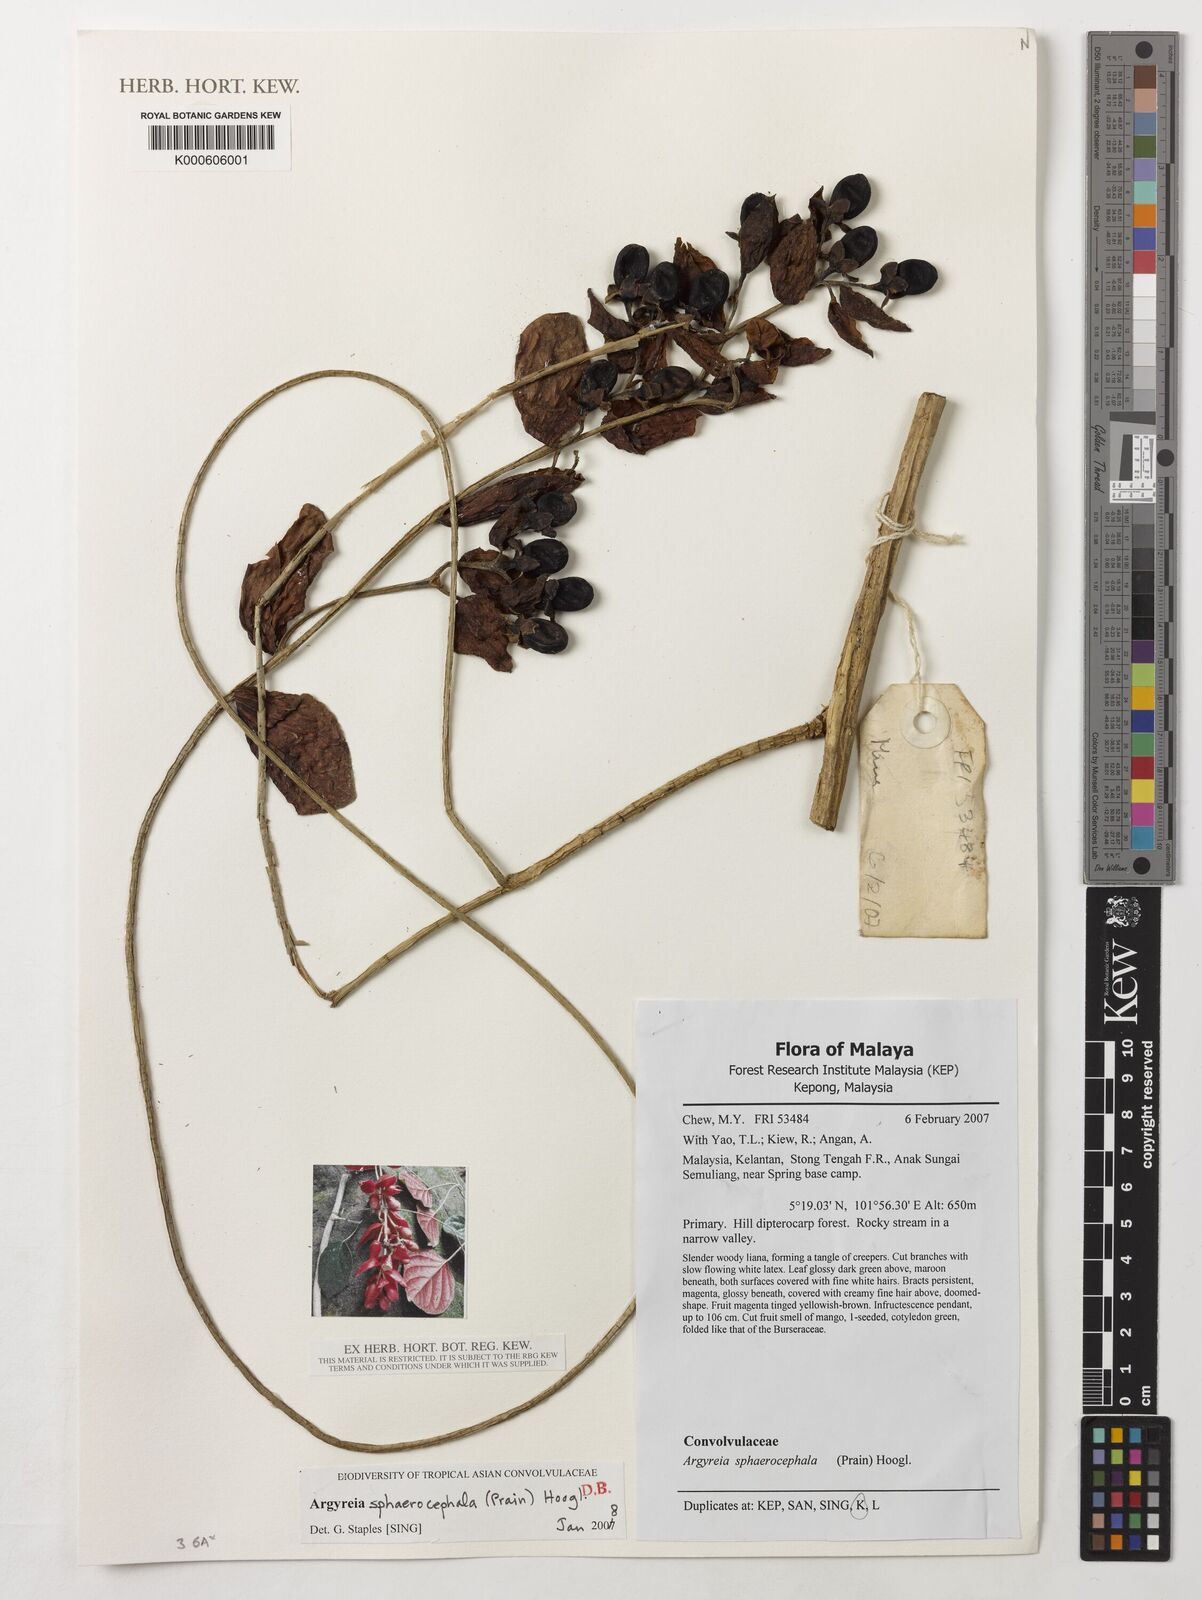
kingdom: Plantae
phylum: Tracheophyta
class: Magnoliopsida
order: Solanales
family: Convolvulaceae
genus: Argyreia
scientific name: Argyreia sphaerocephala
